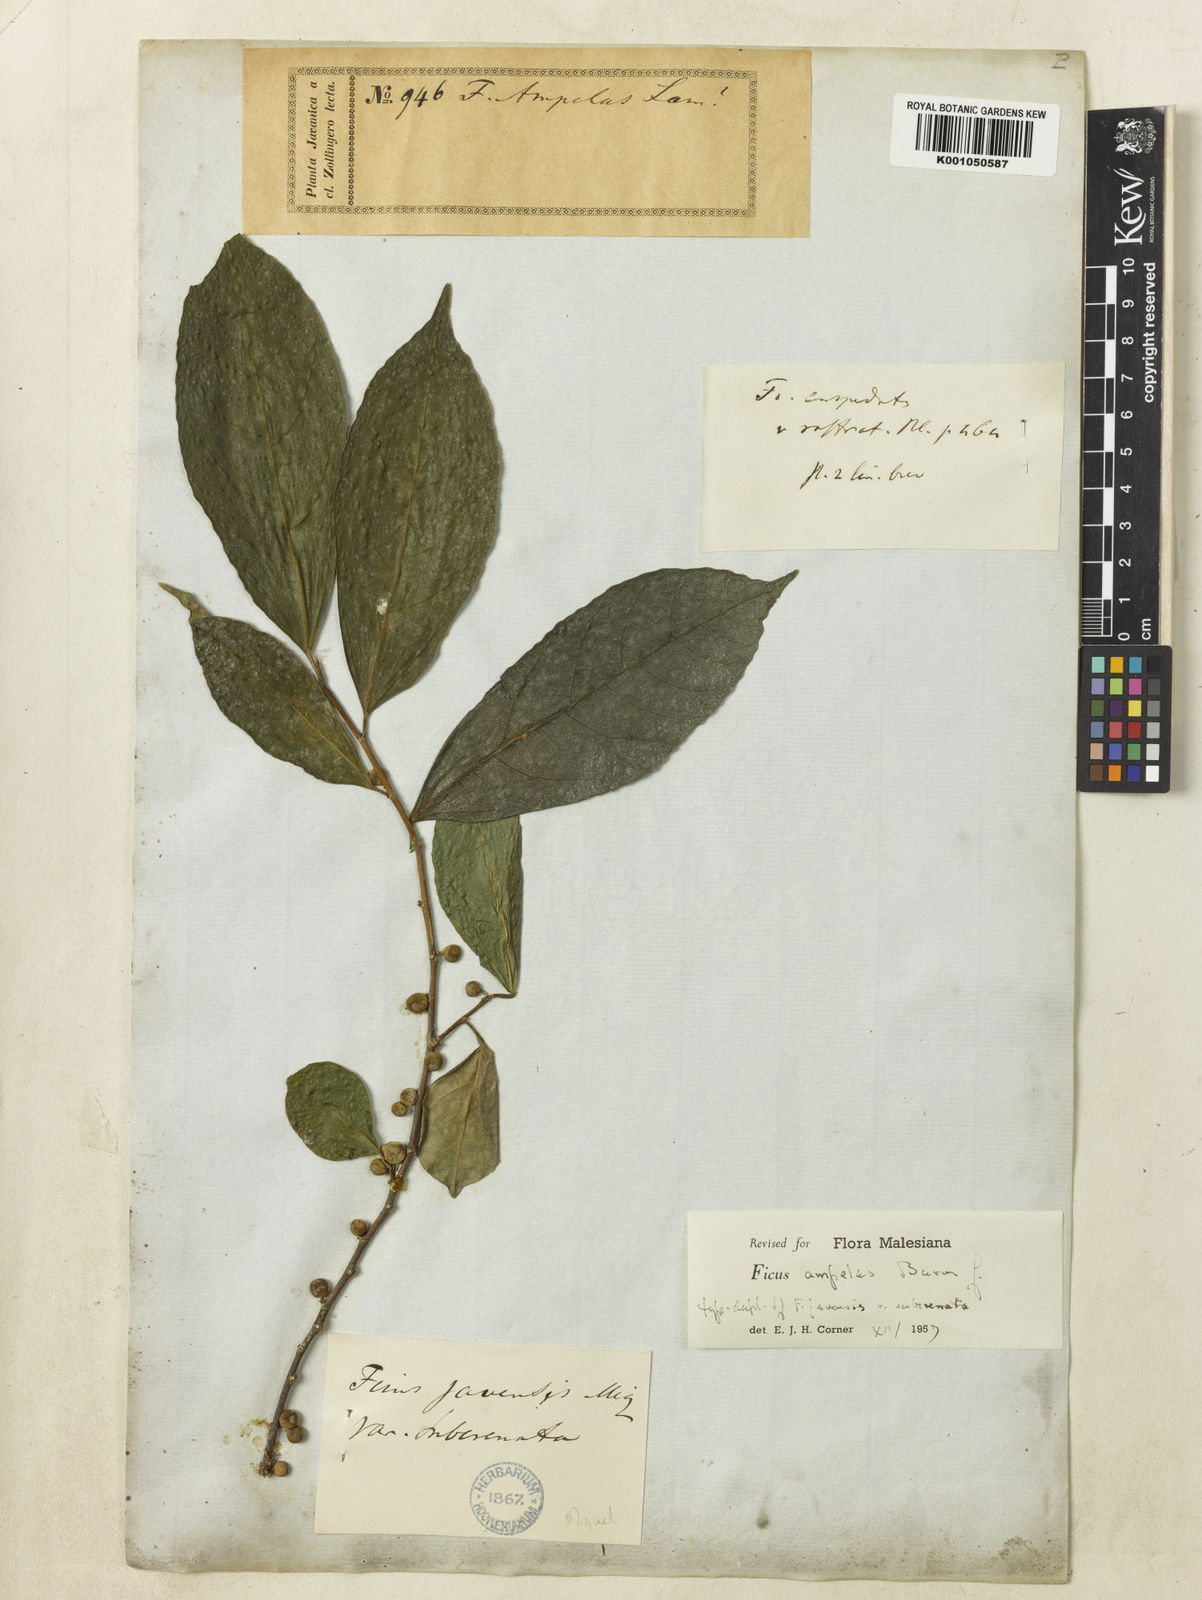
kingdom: Plantae
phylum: Tracheophyta
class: Magnoliopsida
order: Rosales
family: Moraceae
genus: Ficus
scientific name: Ficus
